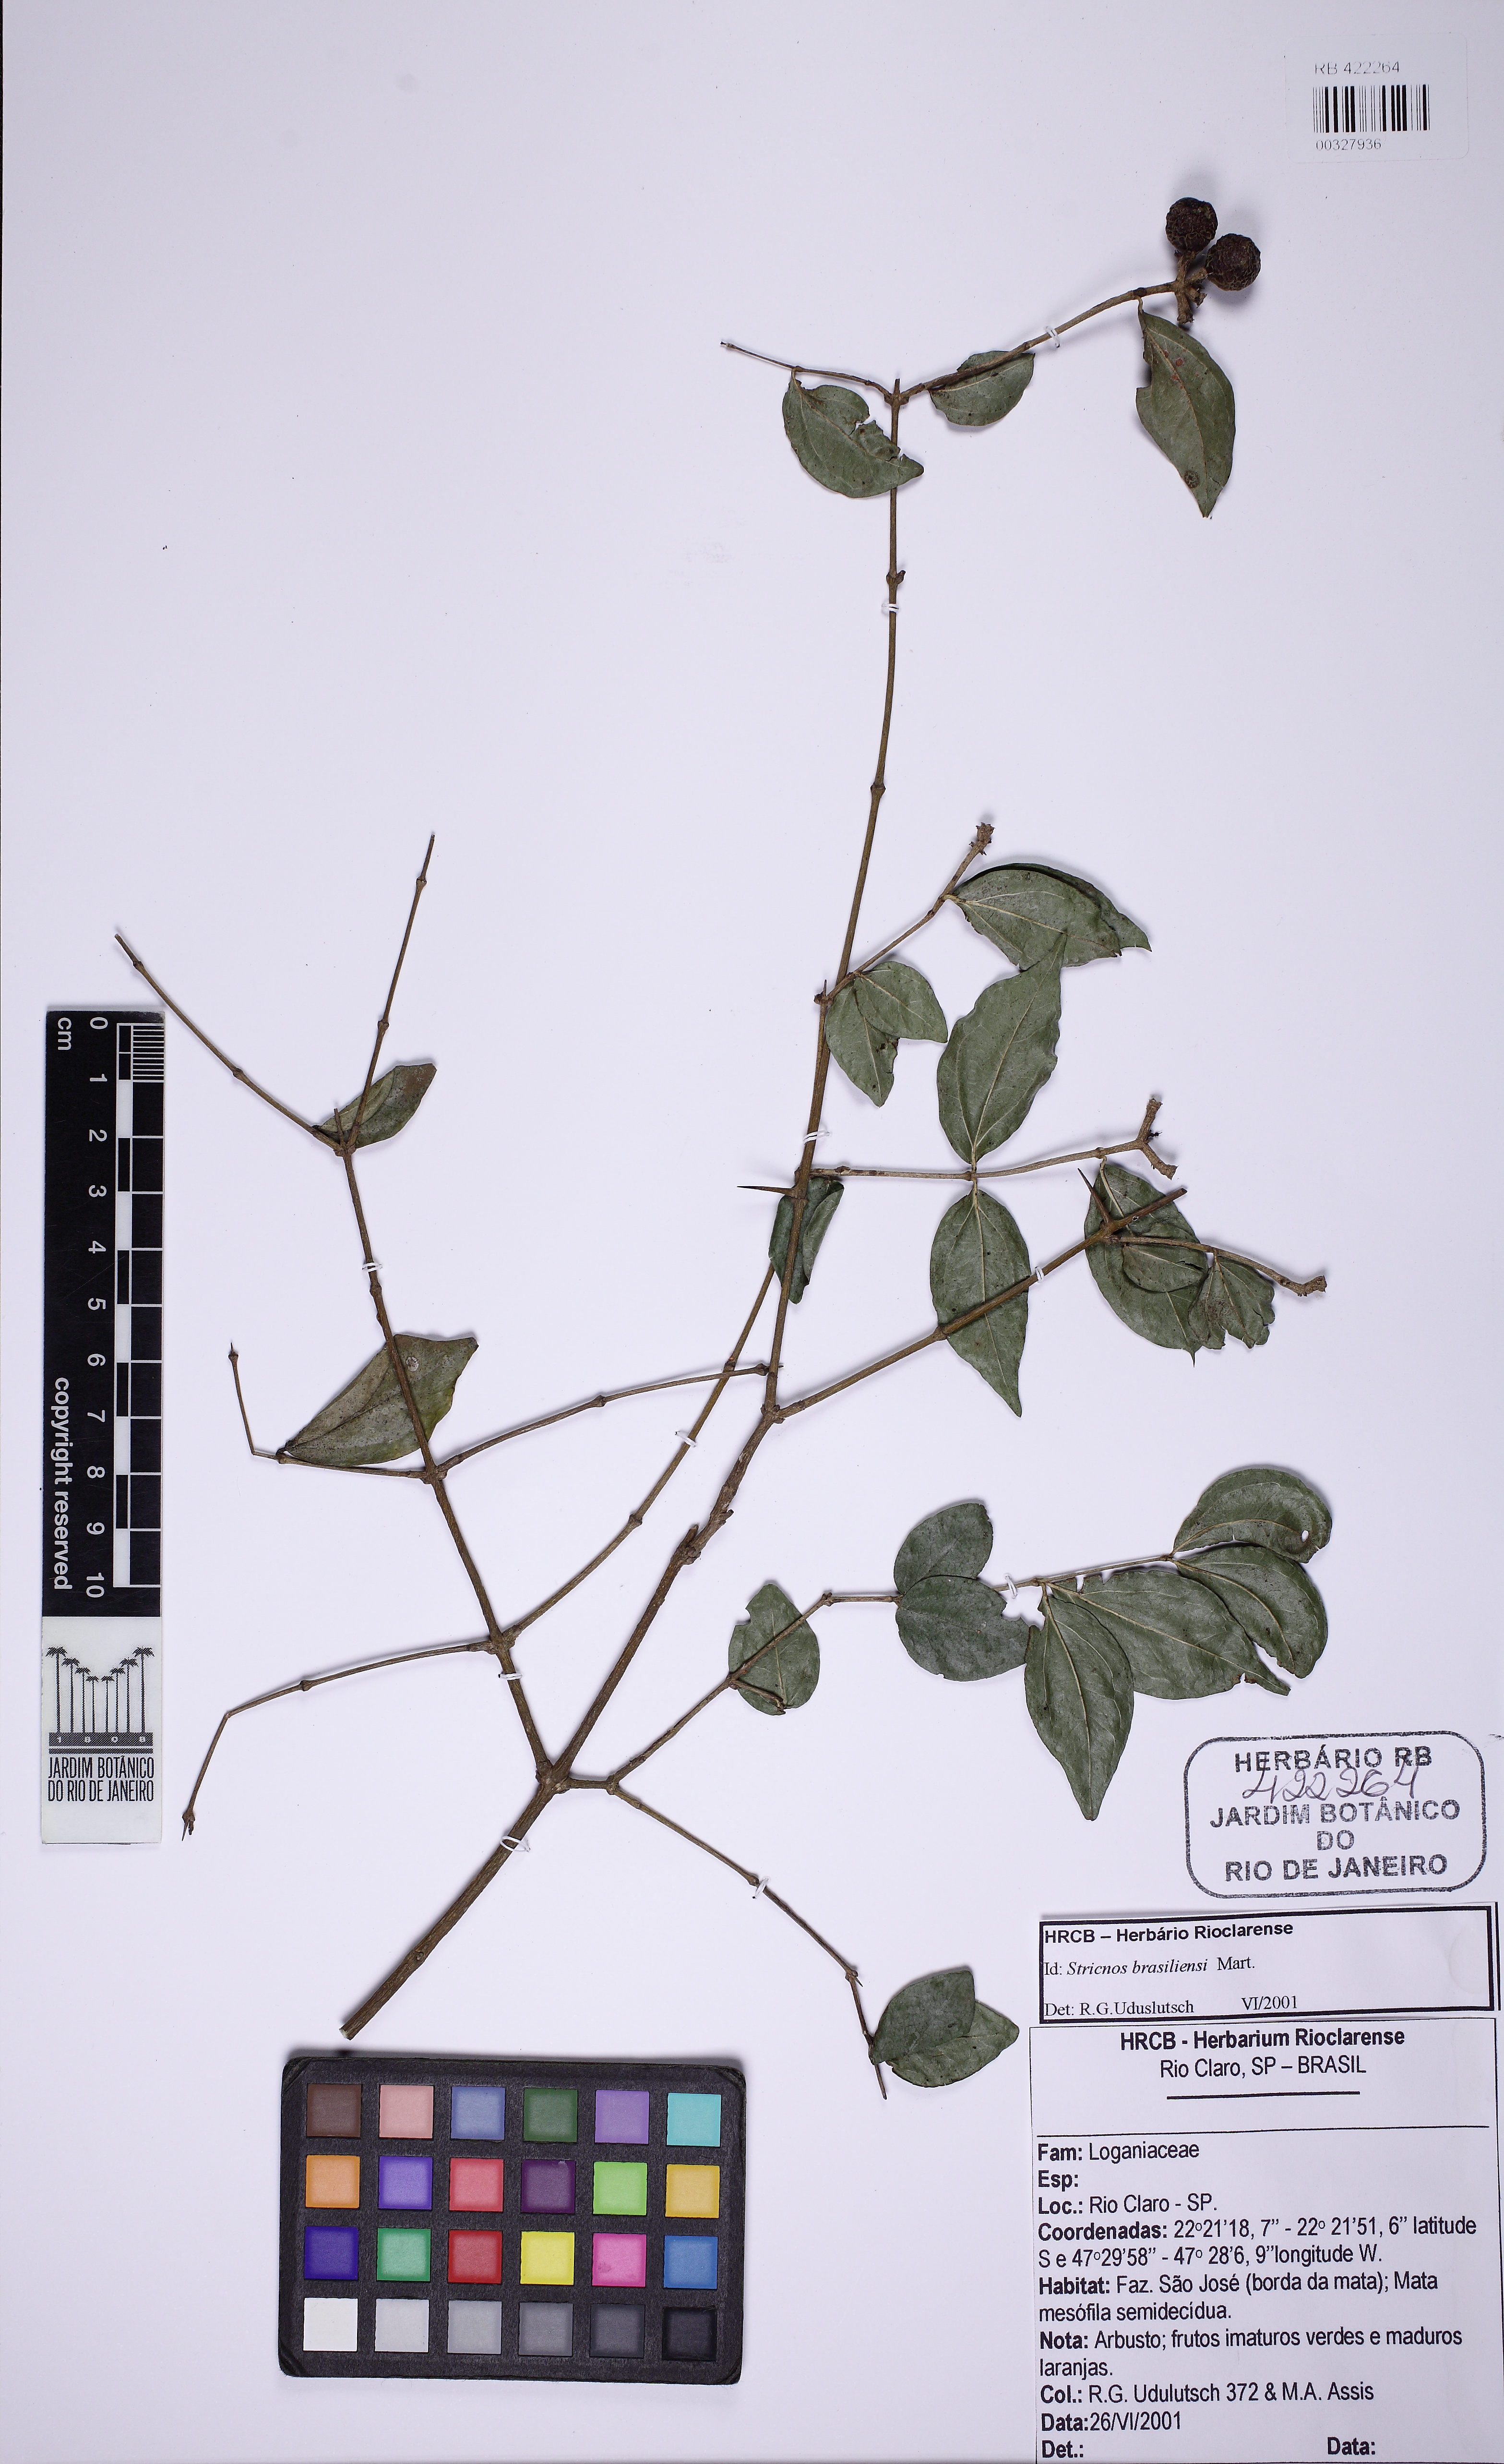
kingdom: Plantae
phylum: Tracheophyta
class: Magnoliopsida
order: Gentianales
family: Loganiaceae
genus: Strychnos
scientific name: Strychnos brasiliensis
